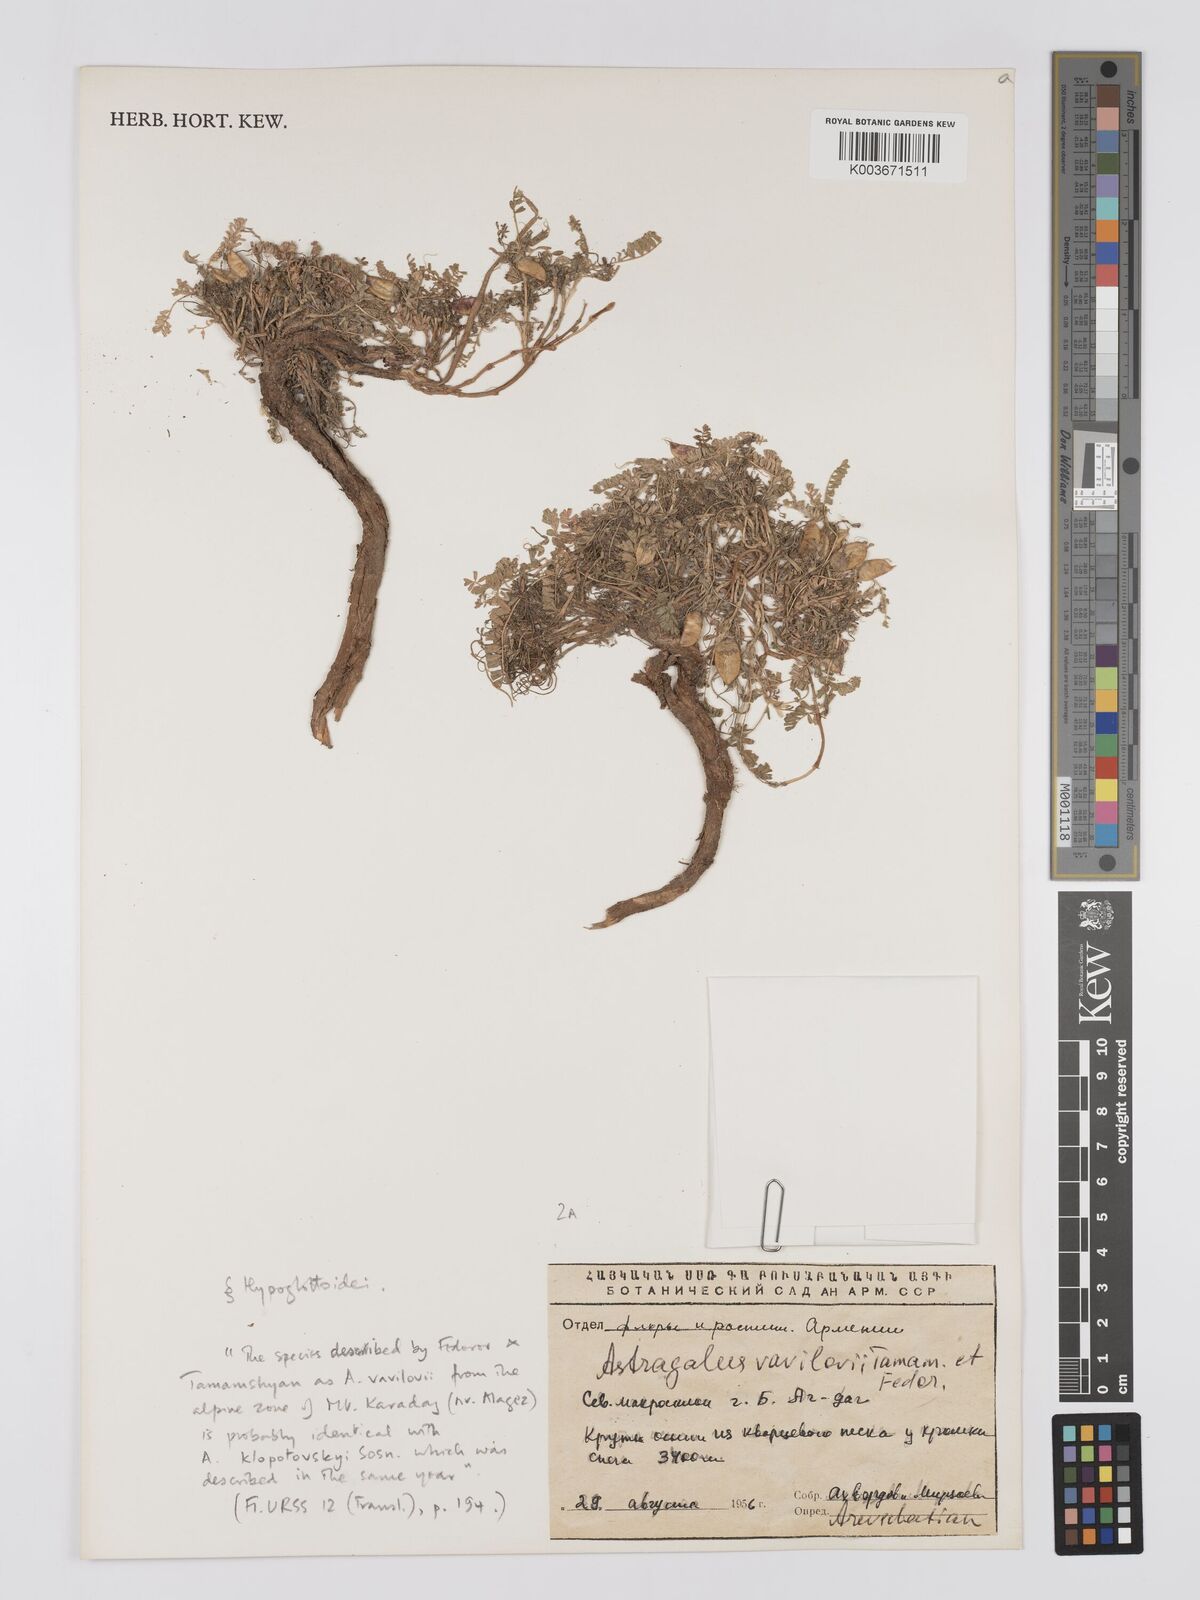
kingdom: Plantae
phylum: Tracheophyta
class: Magnoliopsida
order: Fabales
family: Fabaceae
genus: Astragalus
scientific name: Astragalus vavilovii
